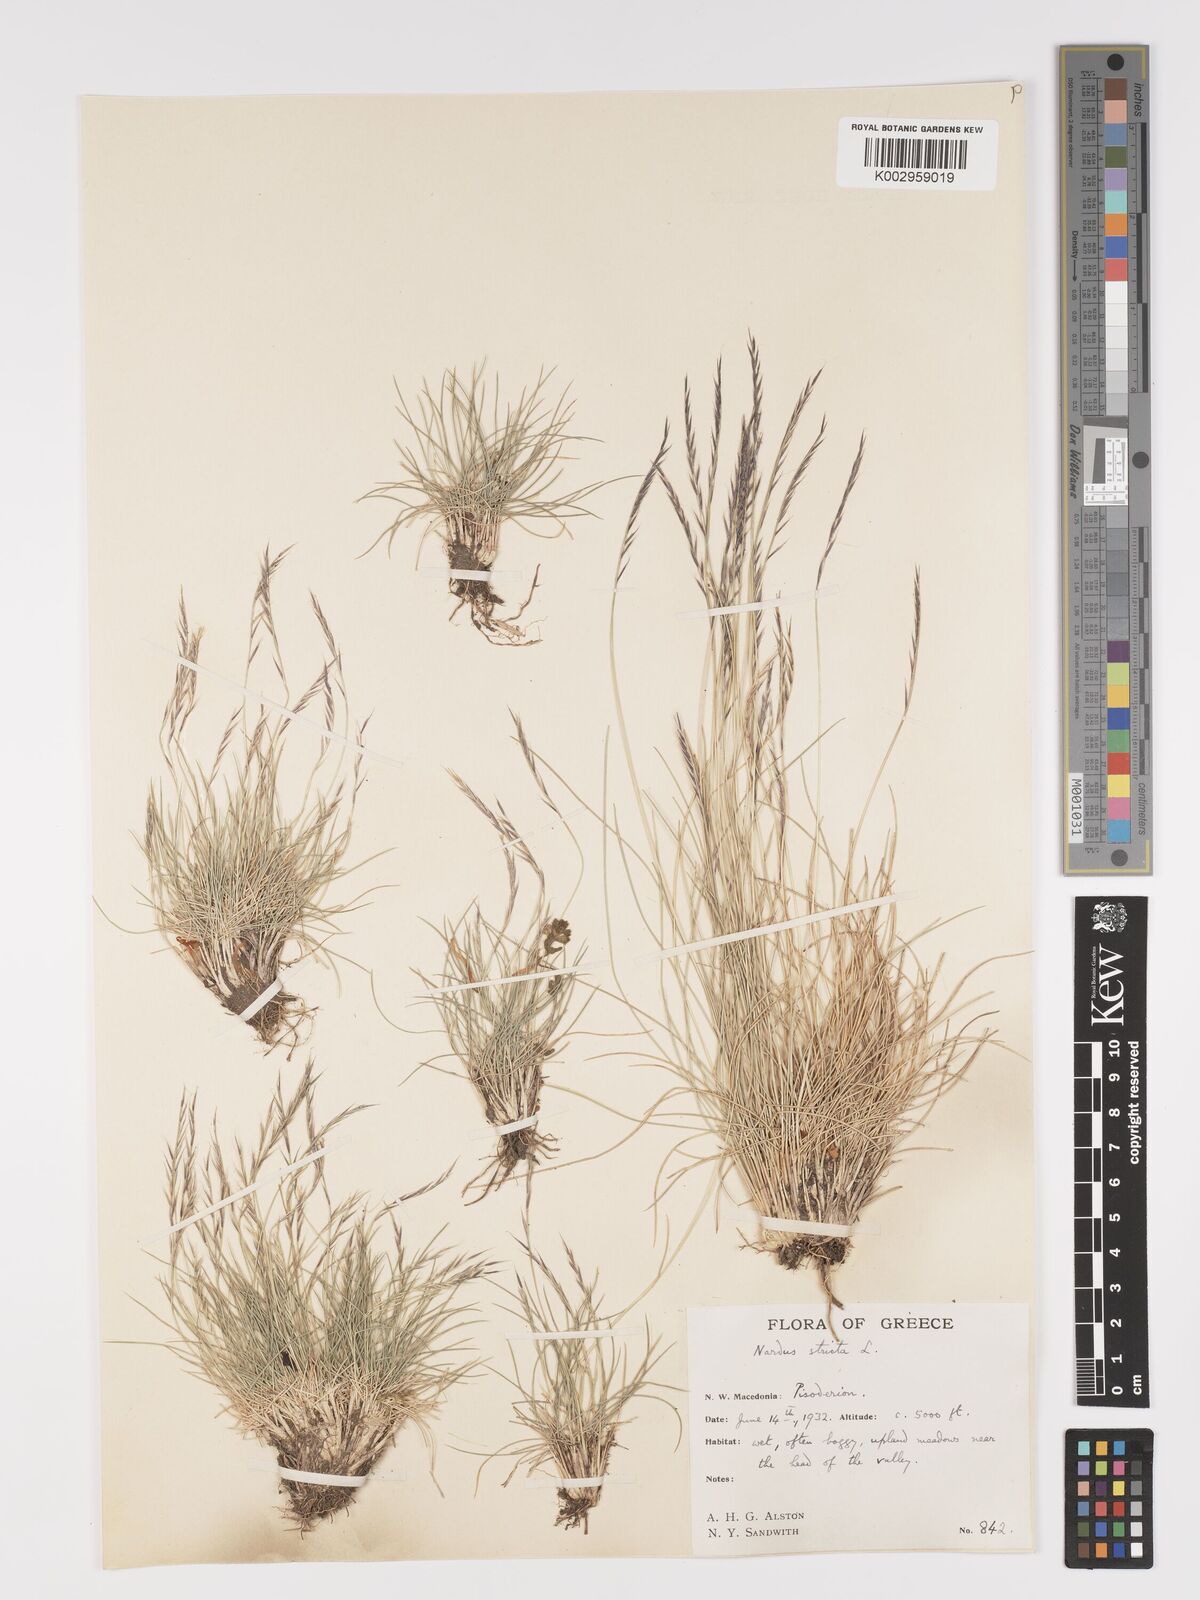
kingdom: Plantae
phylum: Tracheophyta
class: Liliopsida
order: Poales
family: Poaceae
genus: Nardus
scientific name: Nardus stricta
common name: Mat-grass
